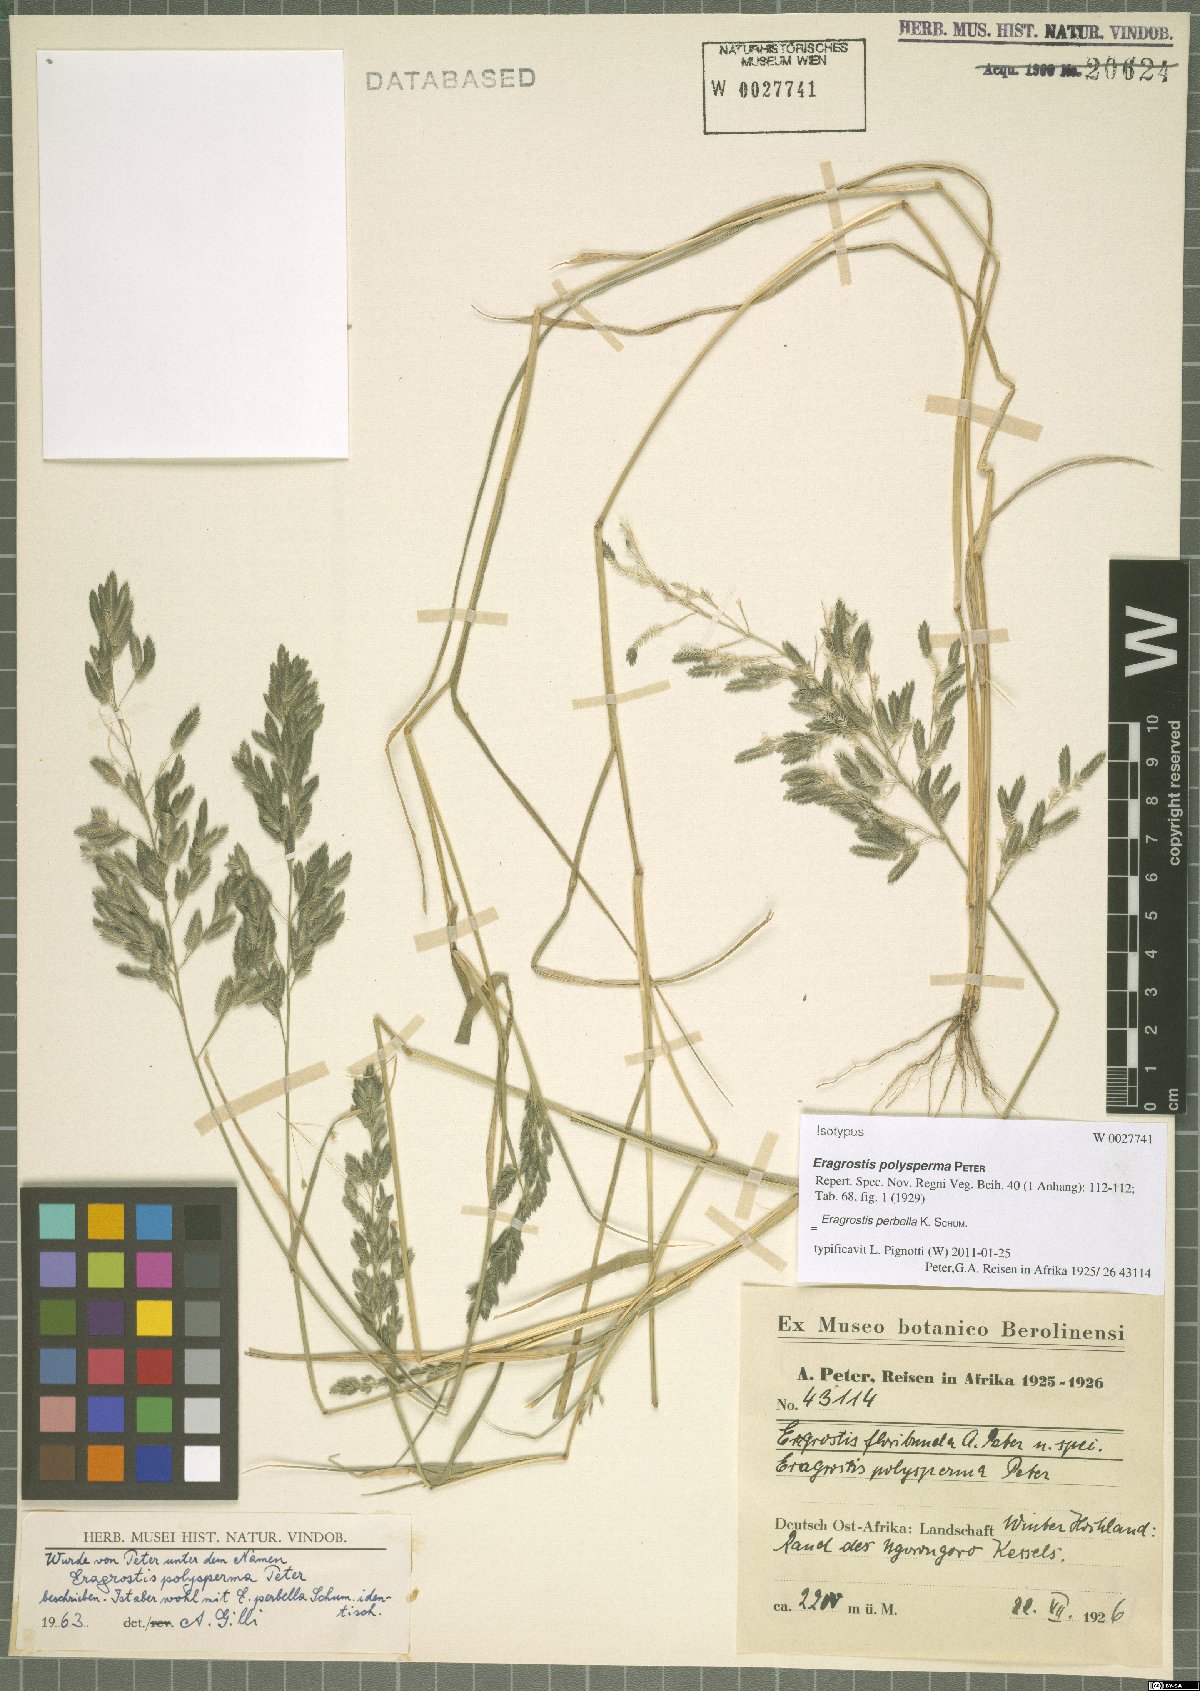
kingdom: Plantae
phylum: Tracheophyta
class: Liliopsida
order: Poales
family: Poaceae
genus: Eragrostis
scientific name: Eragrostis perbella
